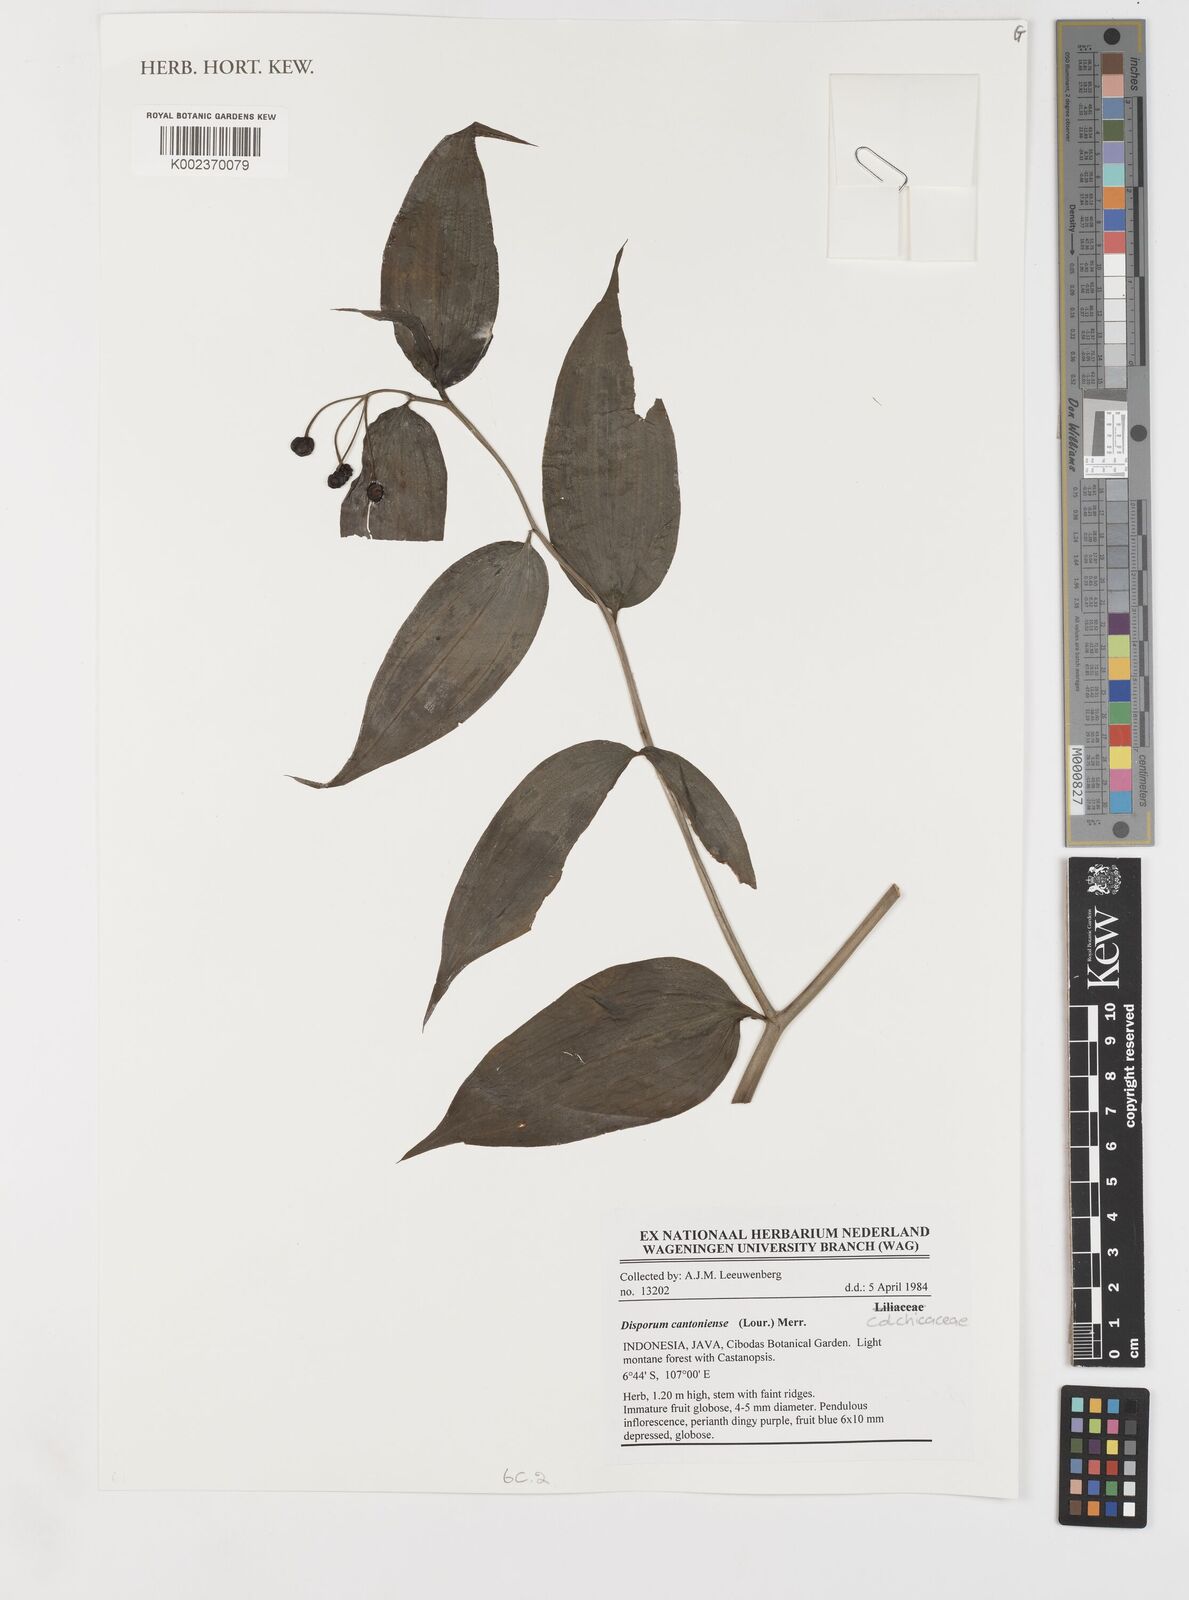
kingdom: Plantae
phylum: Tracheophyta
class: Liliopsida
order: Liliales
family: Colchicaceae
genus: Disporum
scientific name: Disporum cantoniense
